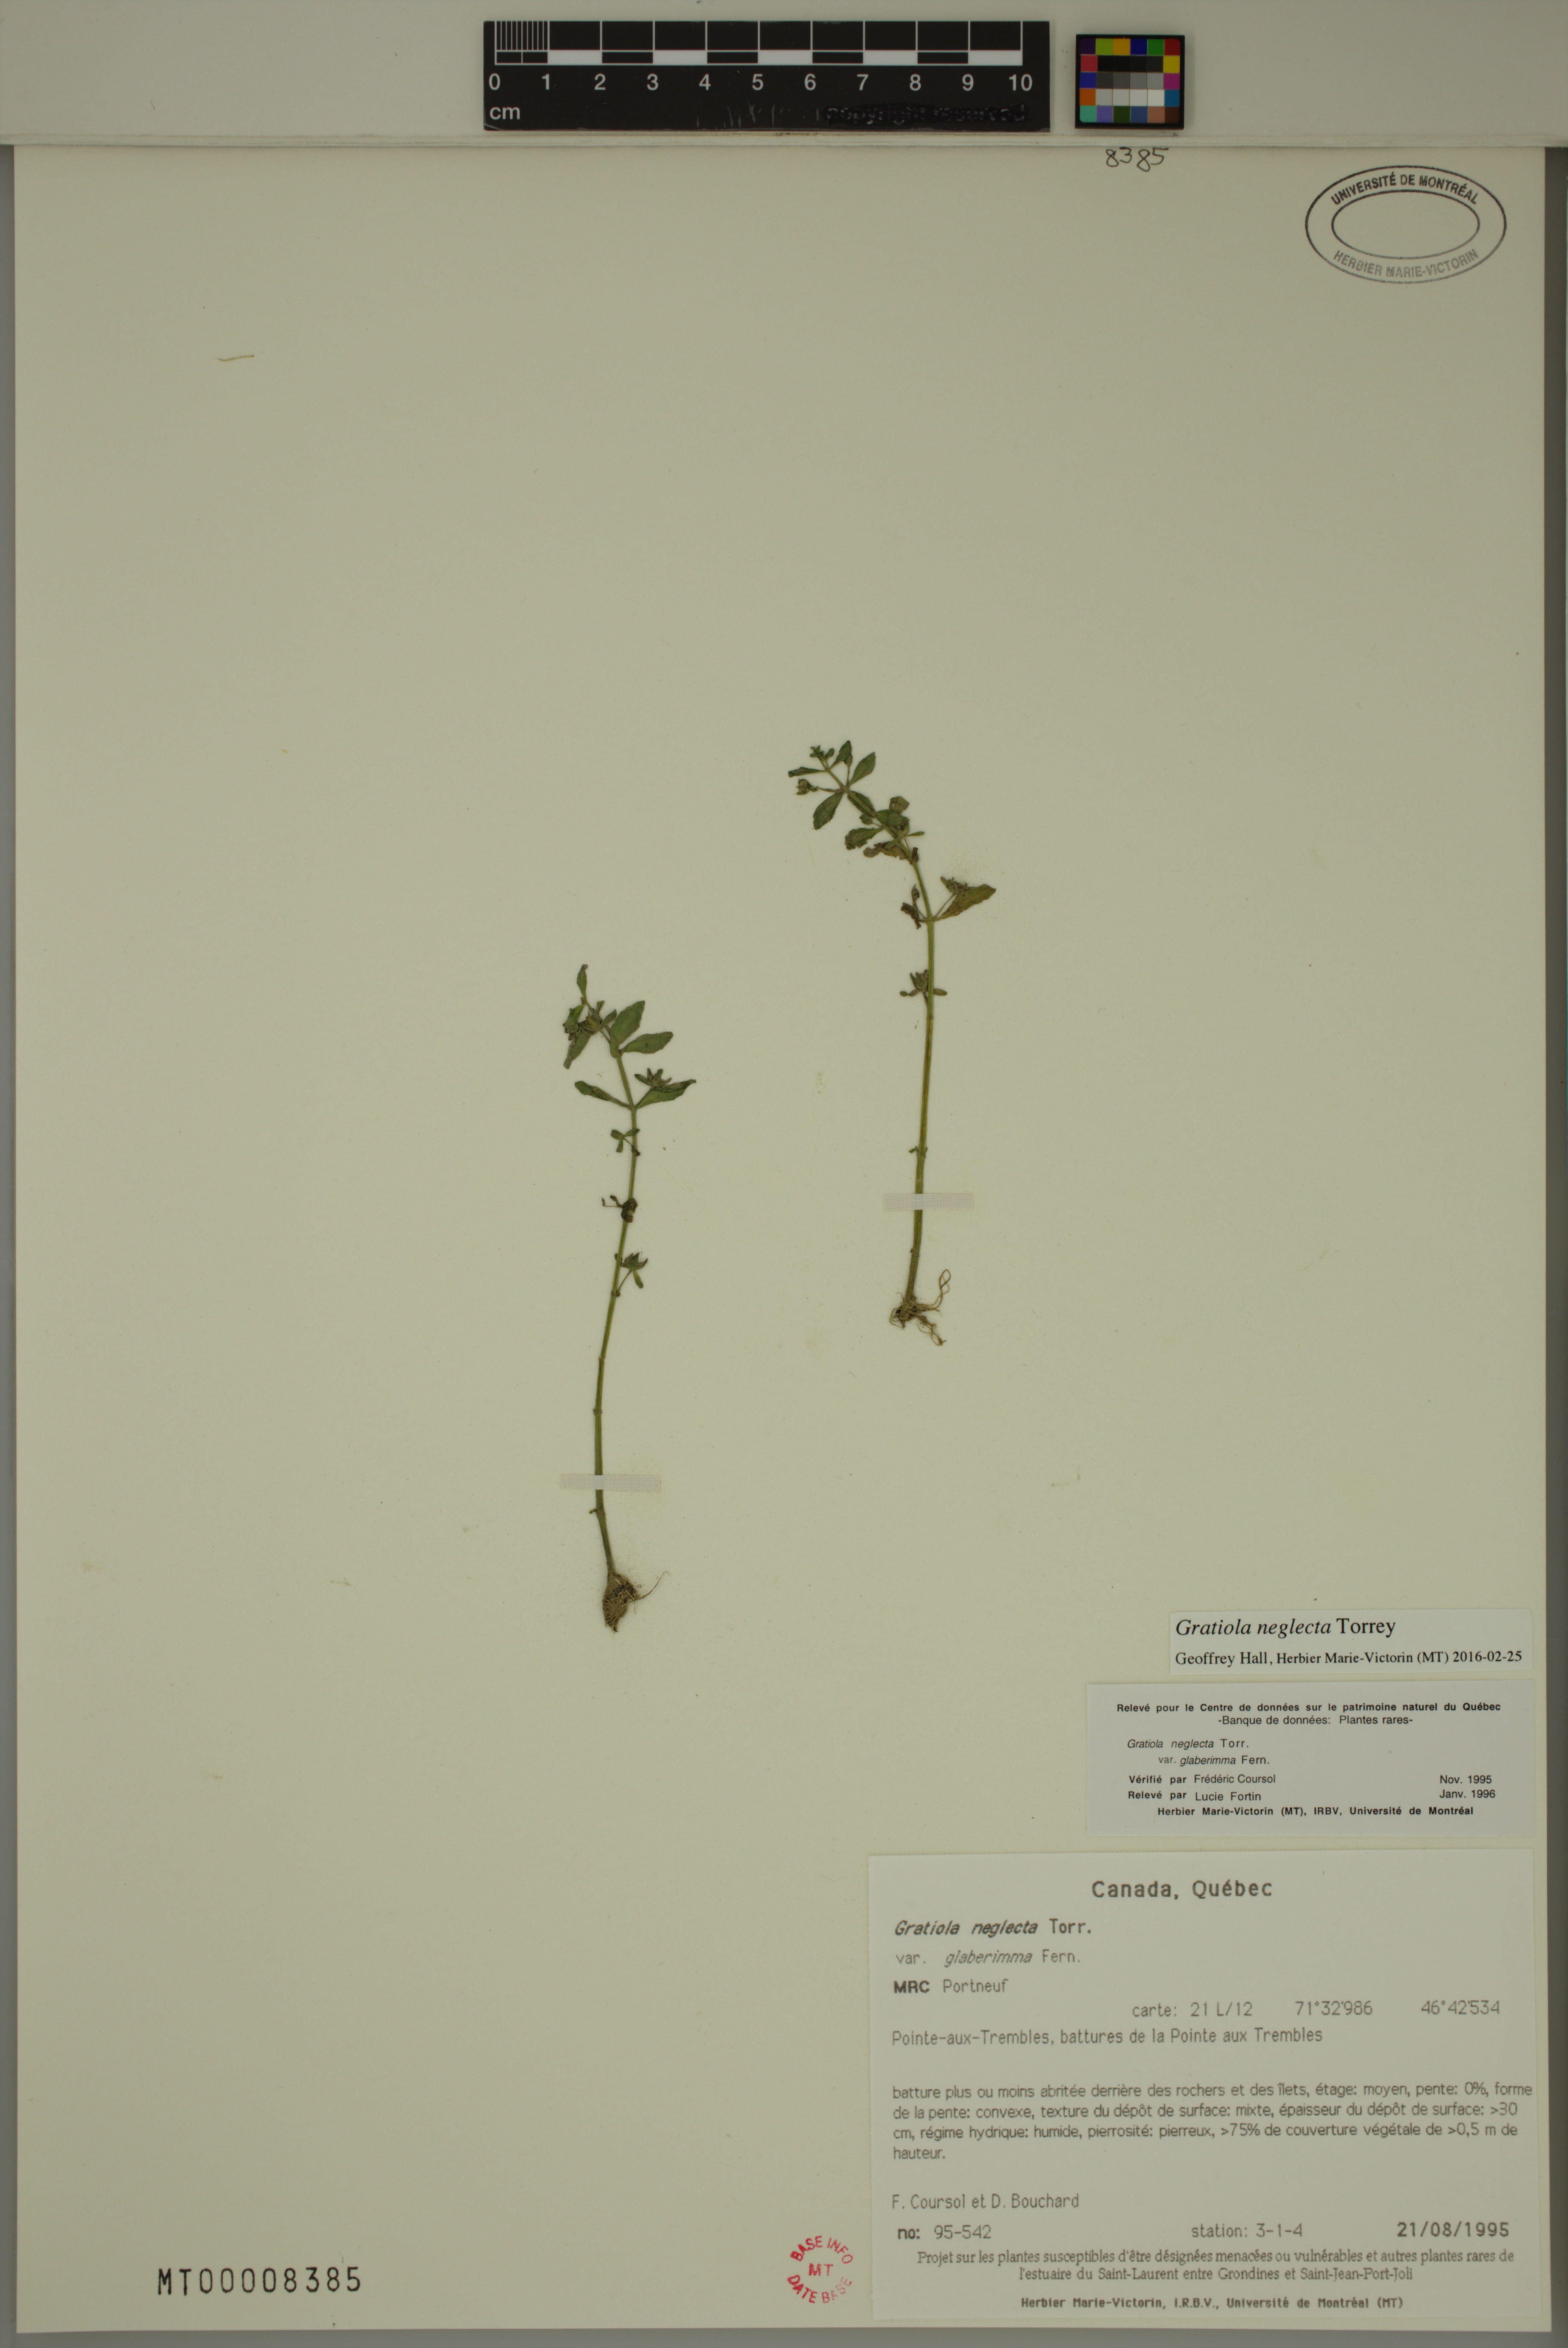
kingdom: Plantae
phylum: Tracheophyta
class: Magnoliopsida
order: Lamiales
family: Plantaginaceae
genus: Gratiola
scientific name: Gratiola neglecta
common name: American hedge-hyssop
